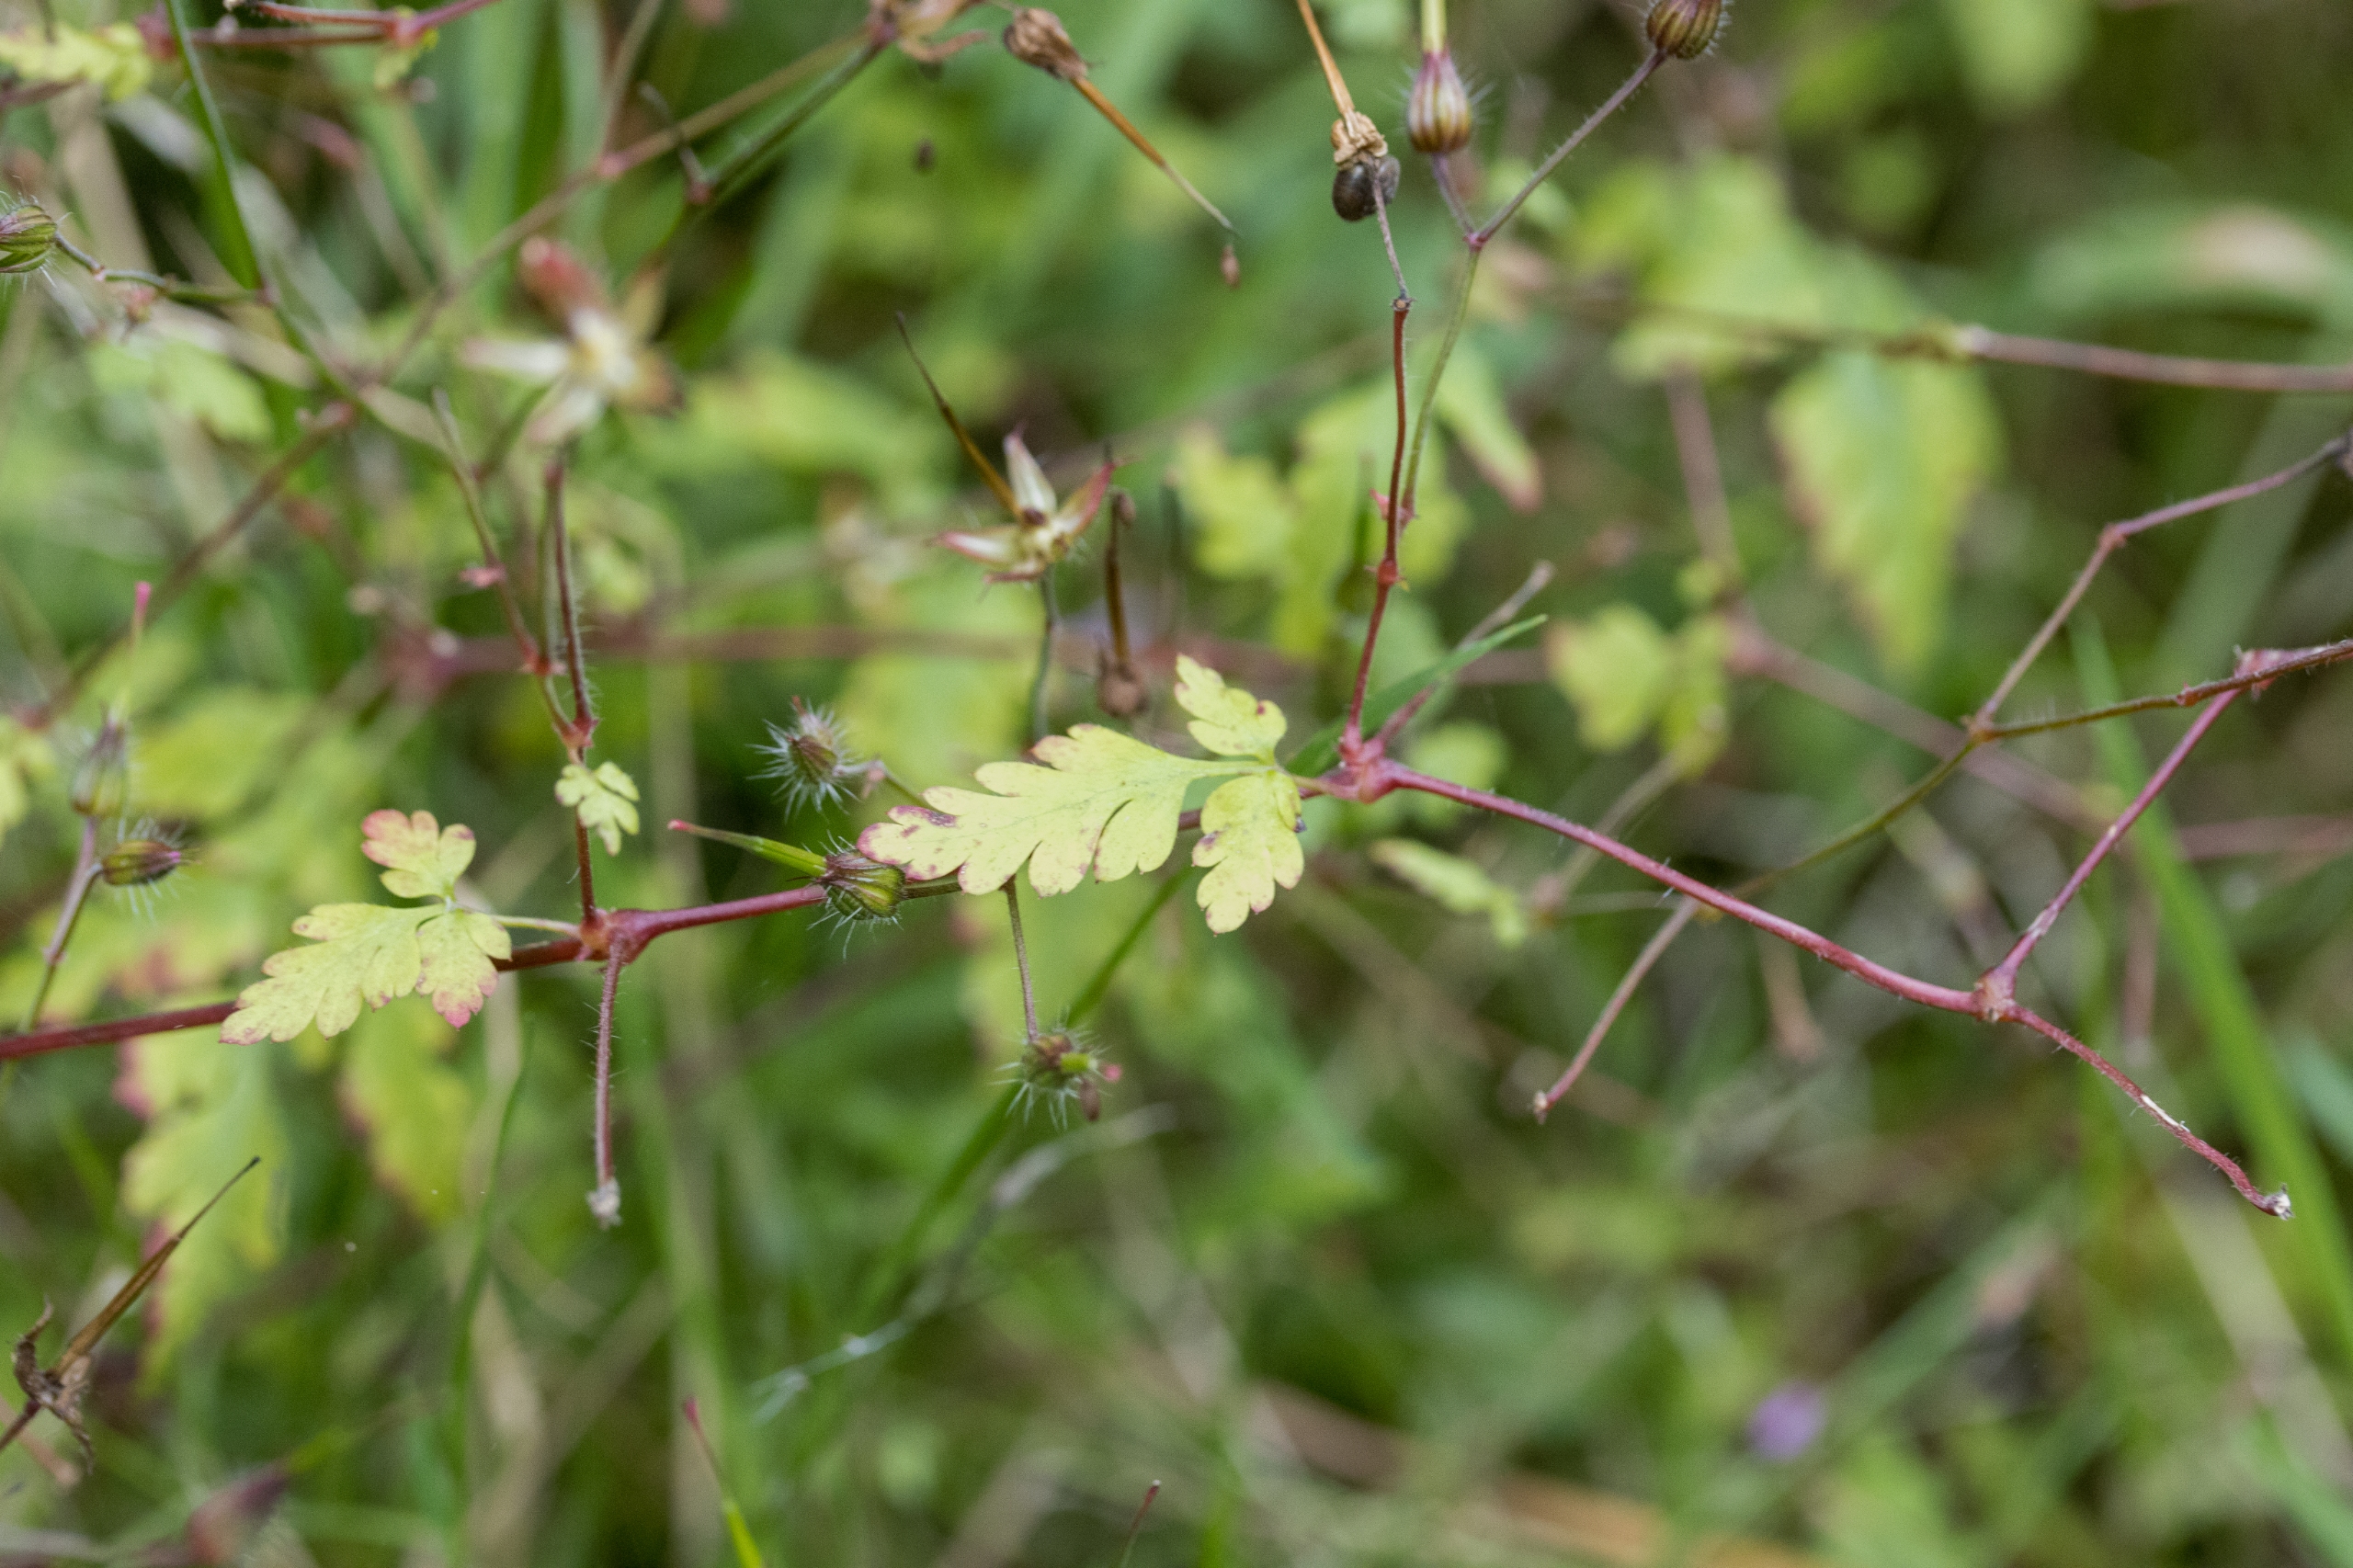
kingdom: Plantae
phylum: Tracheophyta
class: Magnoliopsida
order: Geraniales
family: Geraniaceae
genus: Geranium
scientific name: Geranium robertianum
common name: Stinkende storkenæb
